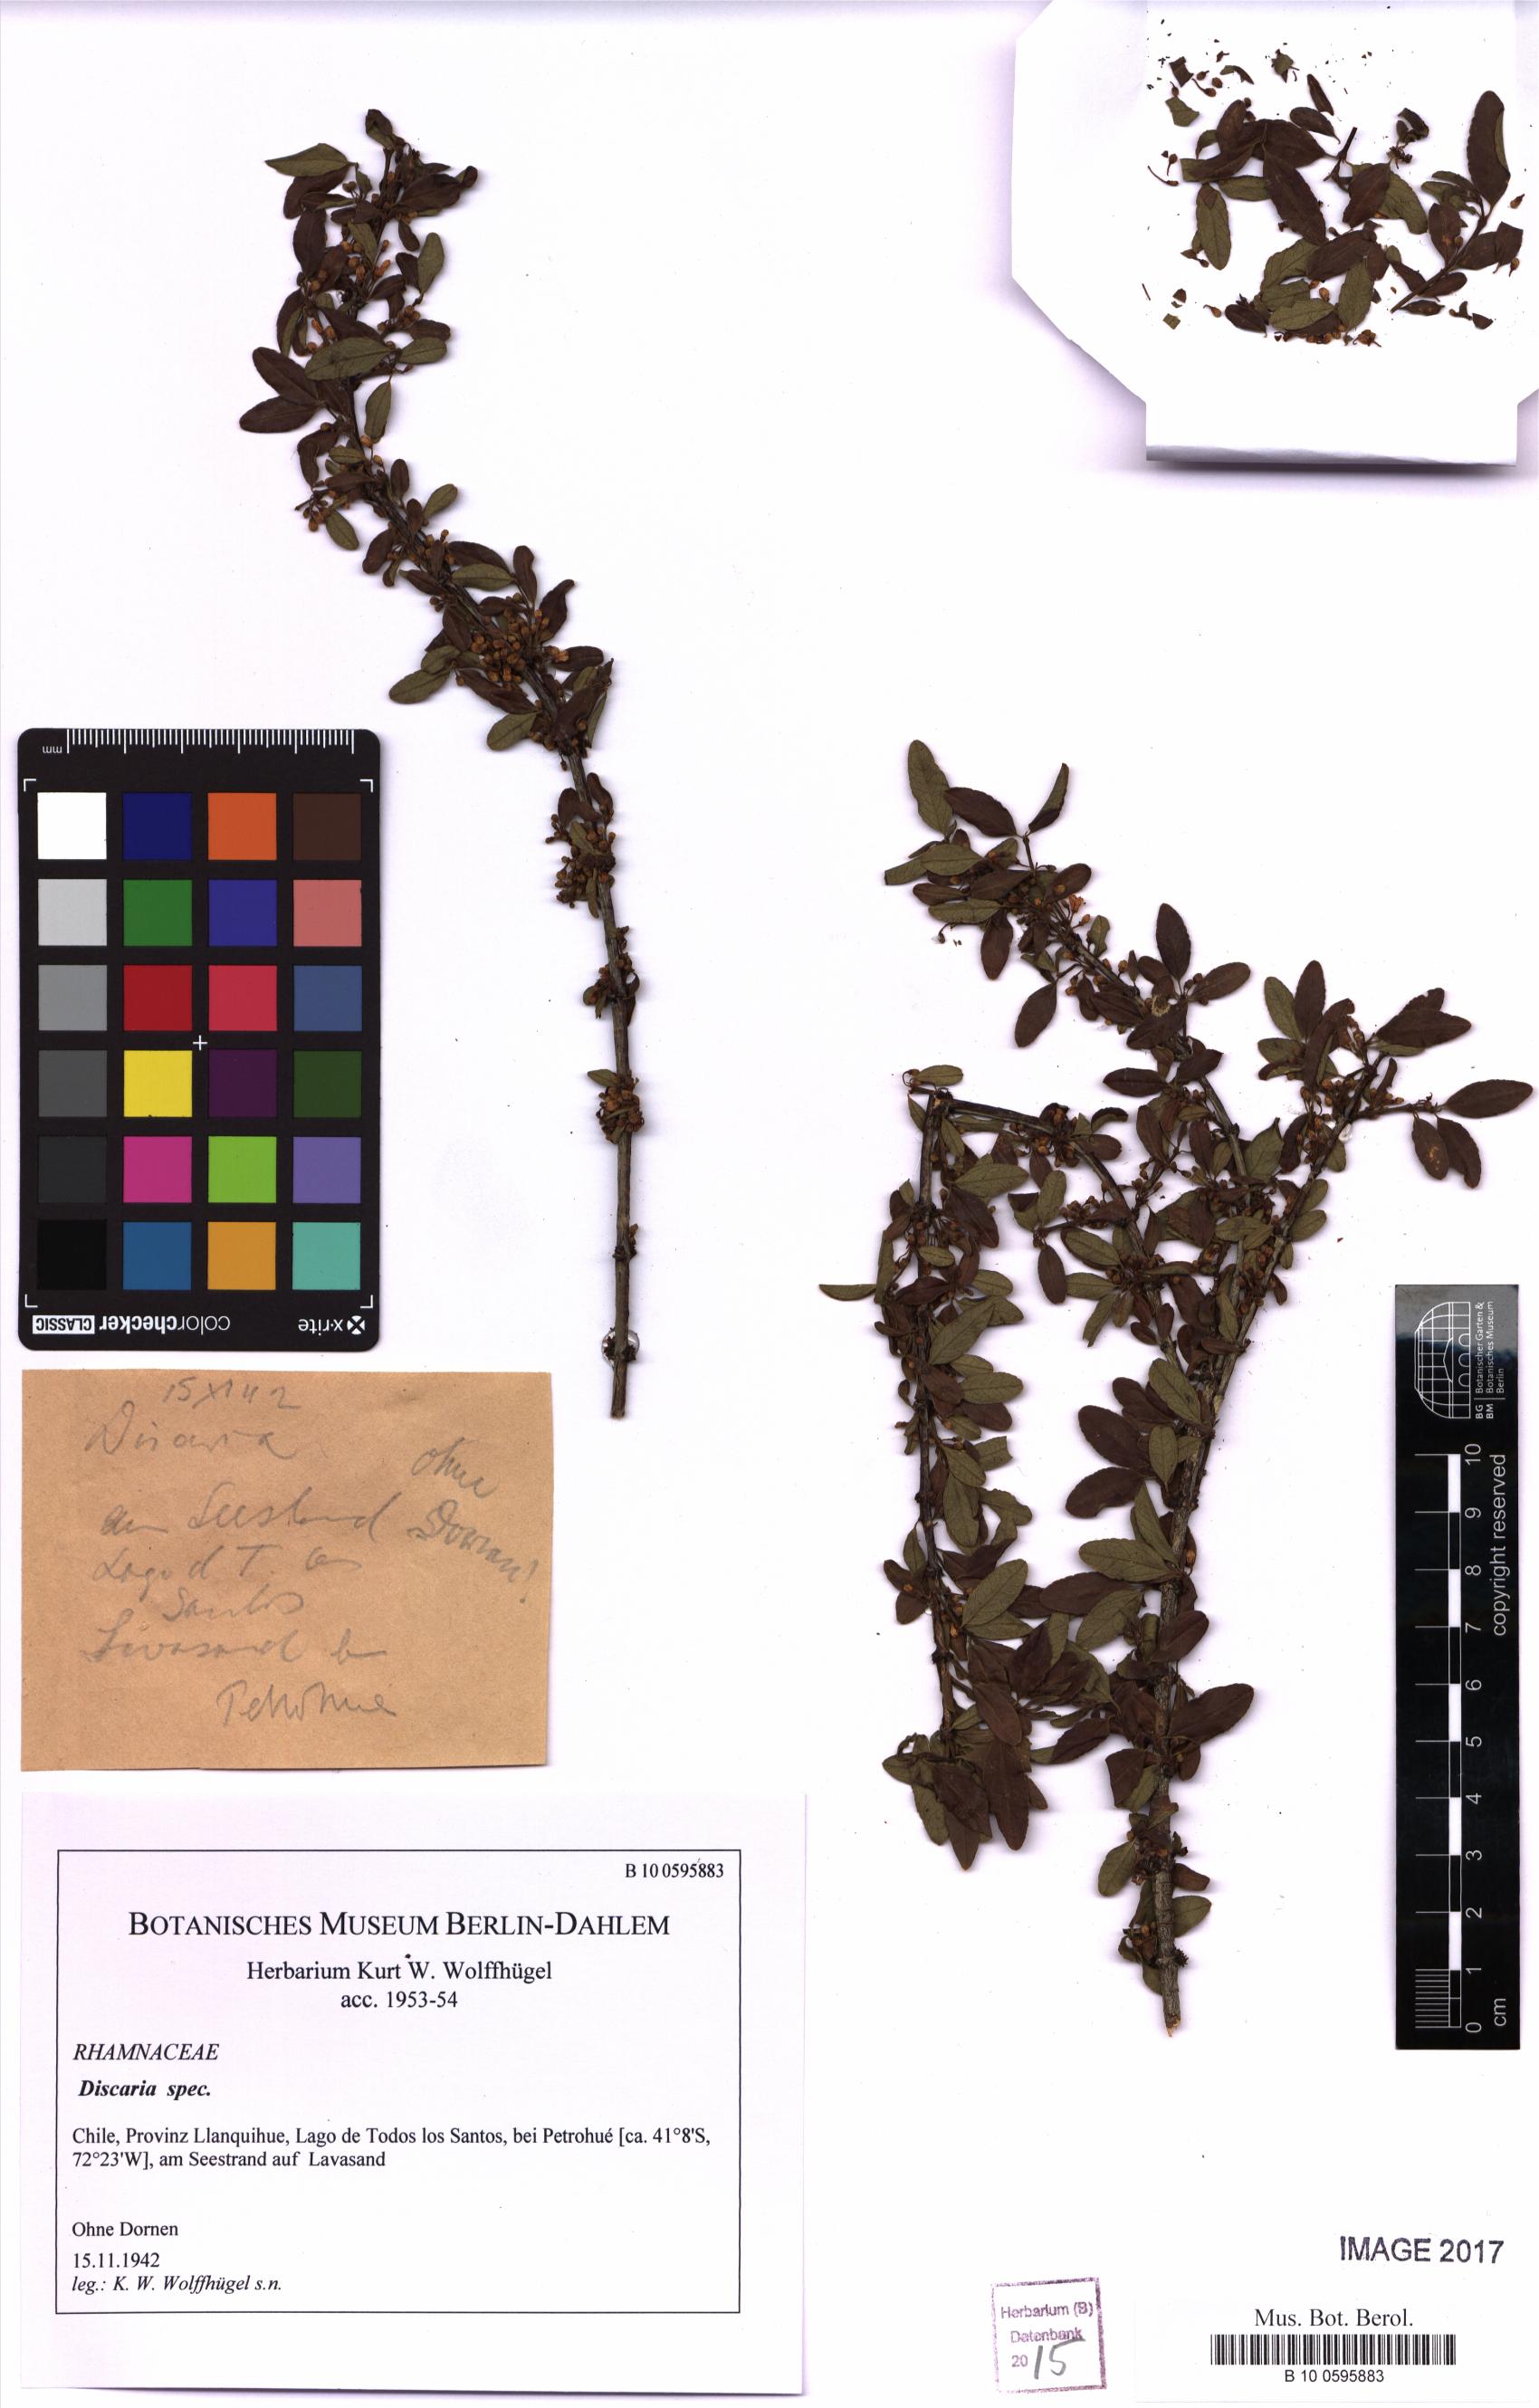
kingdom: Plantae
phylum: Tracheophyta
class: Magnoliopsida
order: Rosales
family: Rhamnaceae
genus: Discaria
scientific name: Discaria
